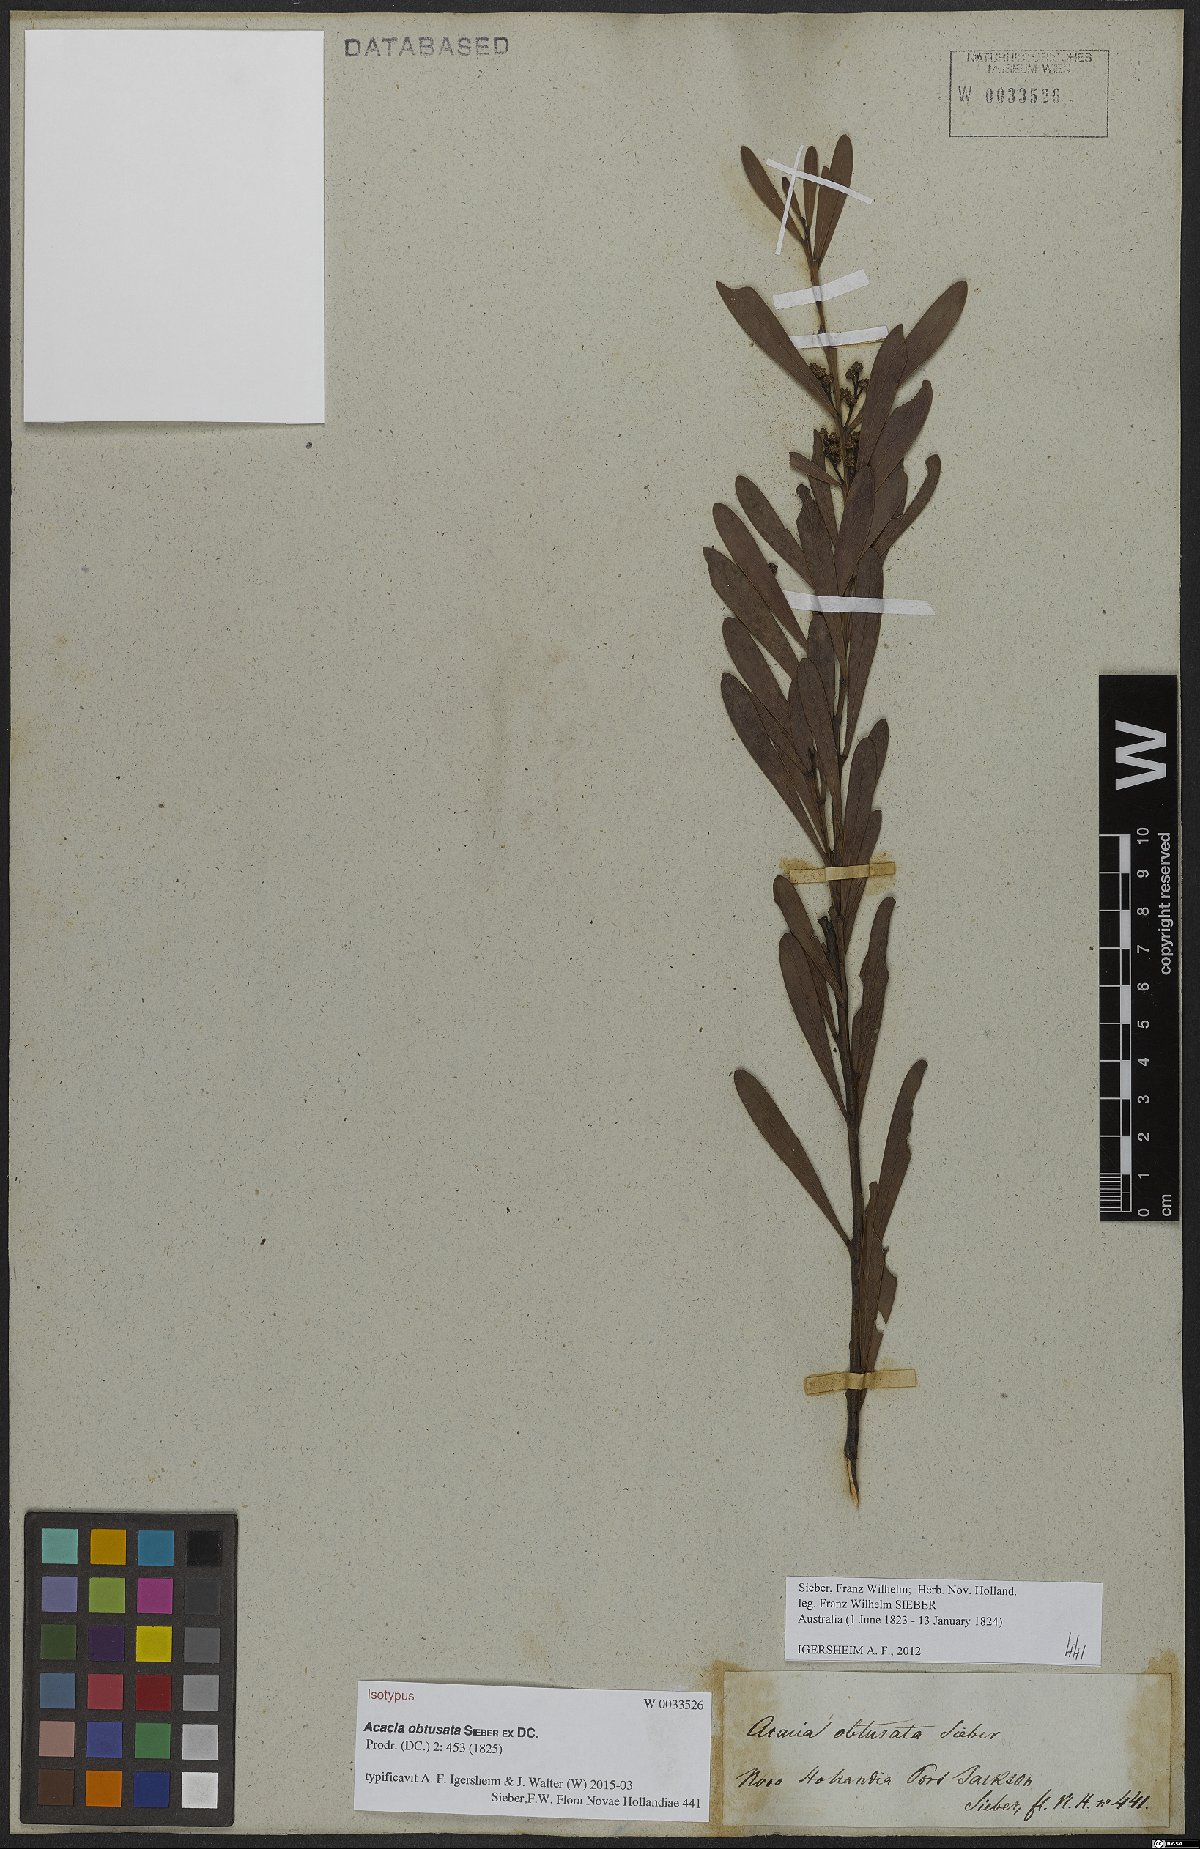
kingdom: Plantae
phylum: Tracheophyta
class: Magnoliopsida
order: Fabales
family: Fabaceae
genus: Acacia
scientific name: Acacia obtusata
